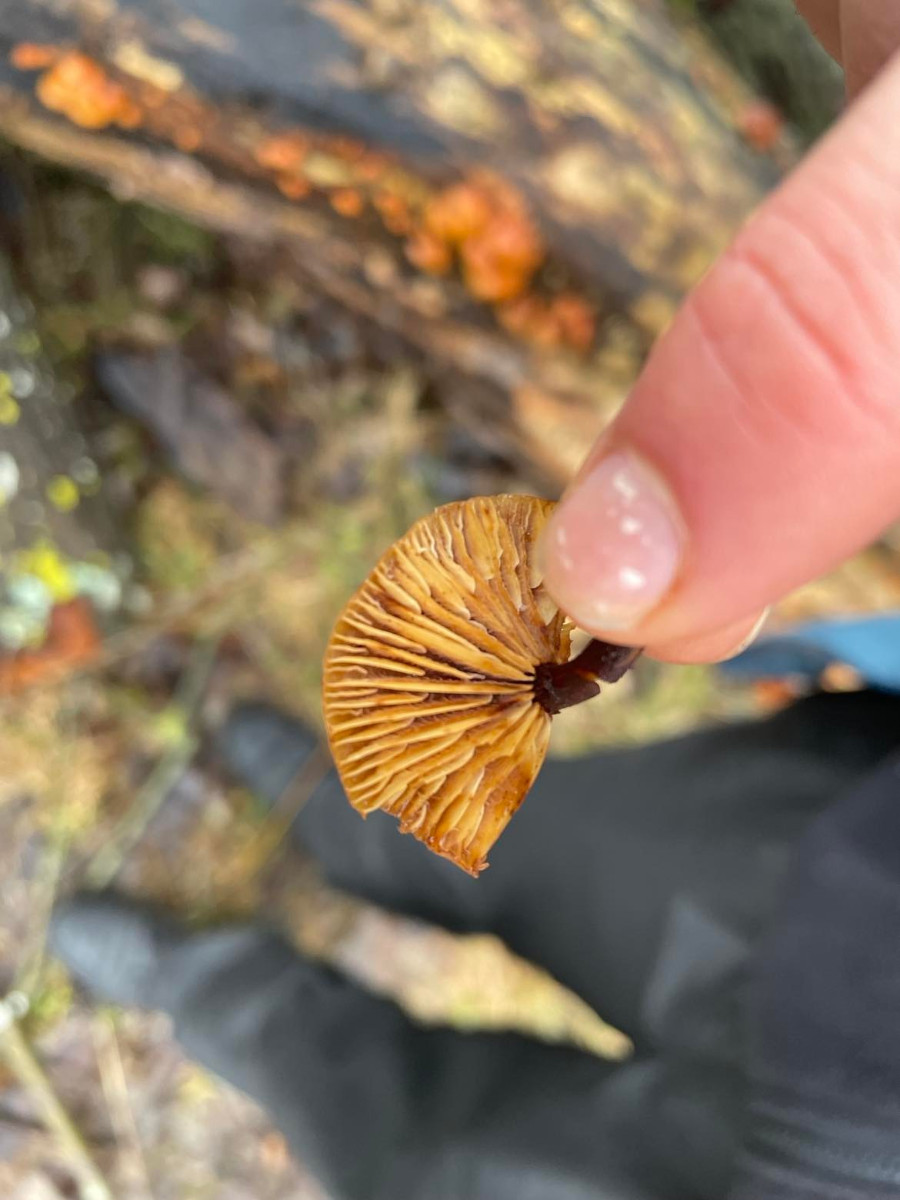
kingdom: Fungi
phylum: Basidiomycota
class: Agaricomycetes
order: Agaricales
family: Physalacriaceae
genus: Flammulina
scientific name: Flammulina
